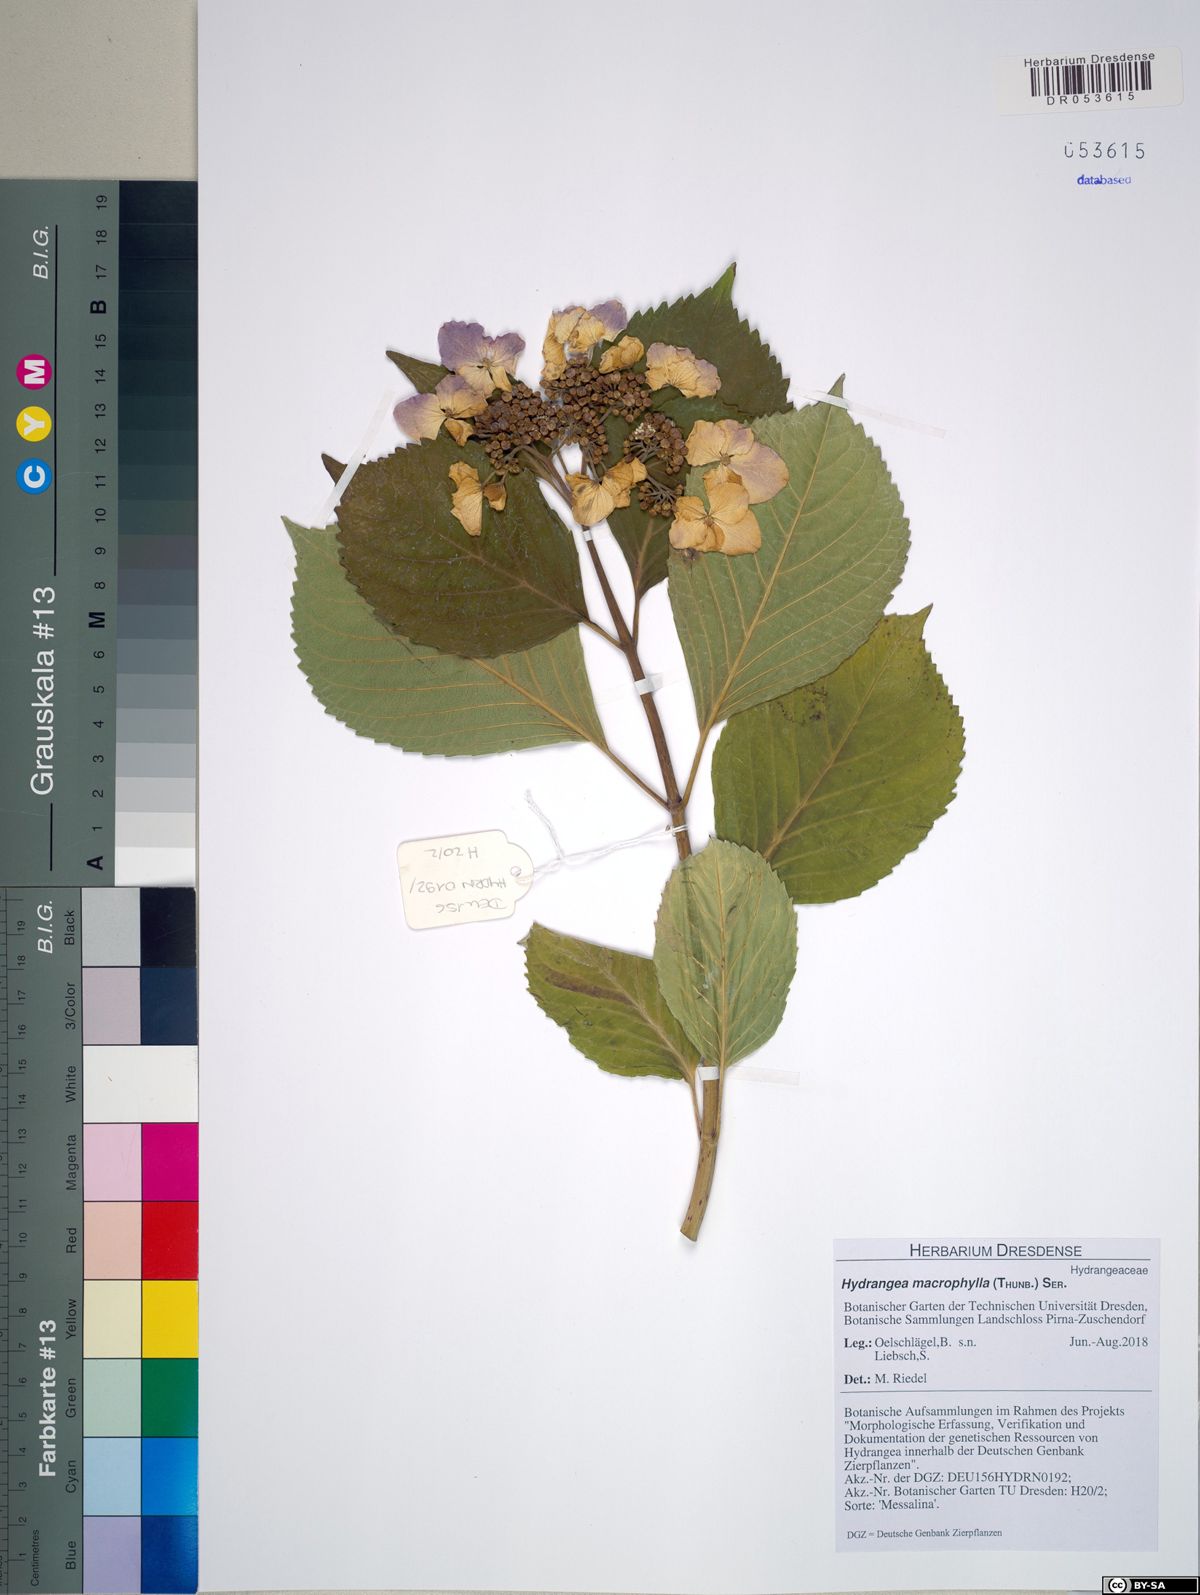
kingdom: Plantae
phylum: Tracheophyta
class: Magnoliopsida
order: Cornales
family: Hydrangeaceae
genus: Hydrangea
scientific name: Hydrangea macrophylla
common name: Hydrangea
